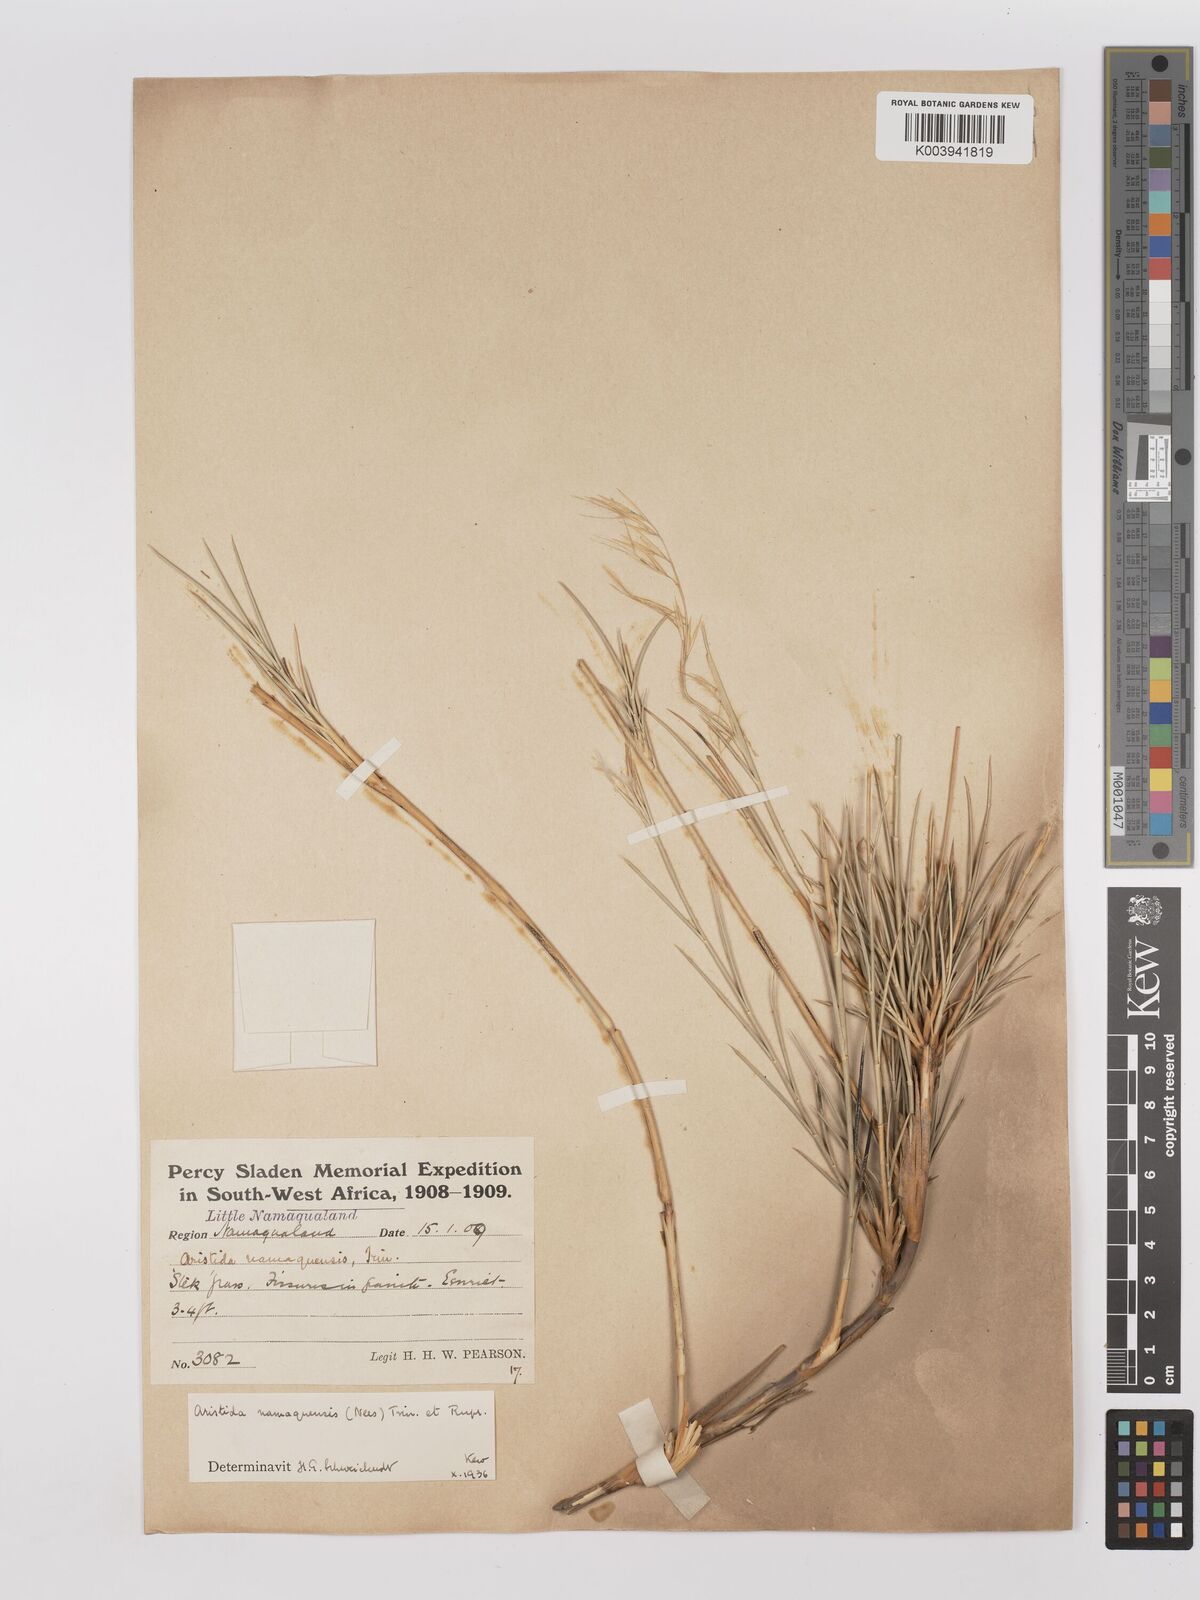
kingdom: Plantae
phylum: Tracheophyta
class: Liliopsida
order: Poales
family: Poaceae
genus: Stipagrostis
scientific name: Stipagrostis namaquensis
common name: River bushman grass
